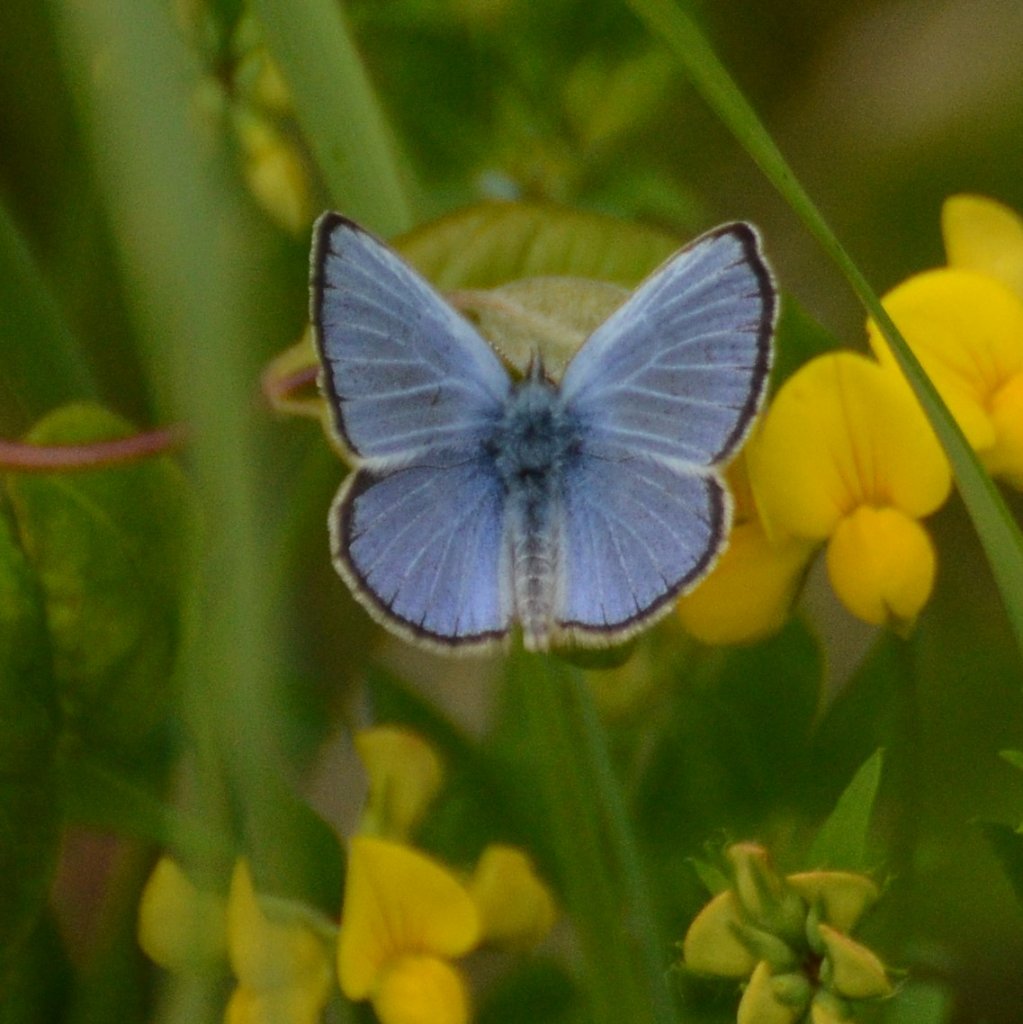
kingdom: Animalia
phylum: Arthropoda
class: Insecta
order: Lepidoptera
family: Lycaenidae
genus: Glaucopsyche
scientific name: Glaucopsyche lygdamus
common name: Silvery Blue
